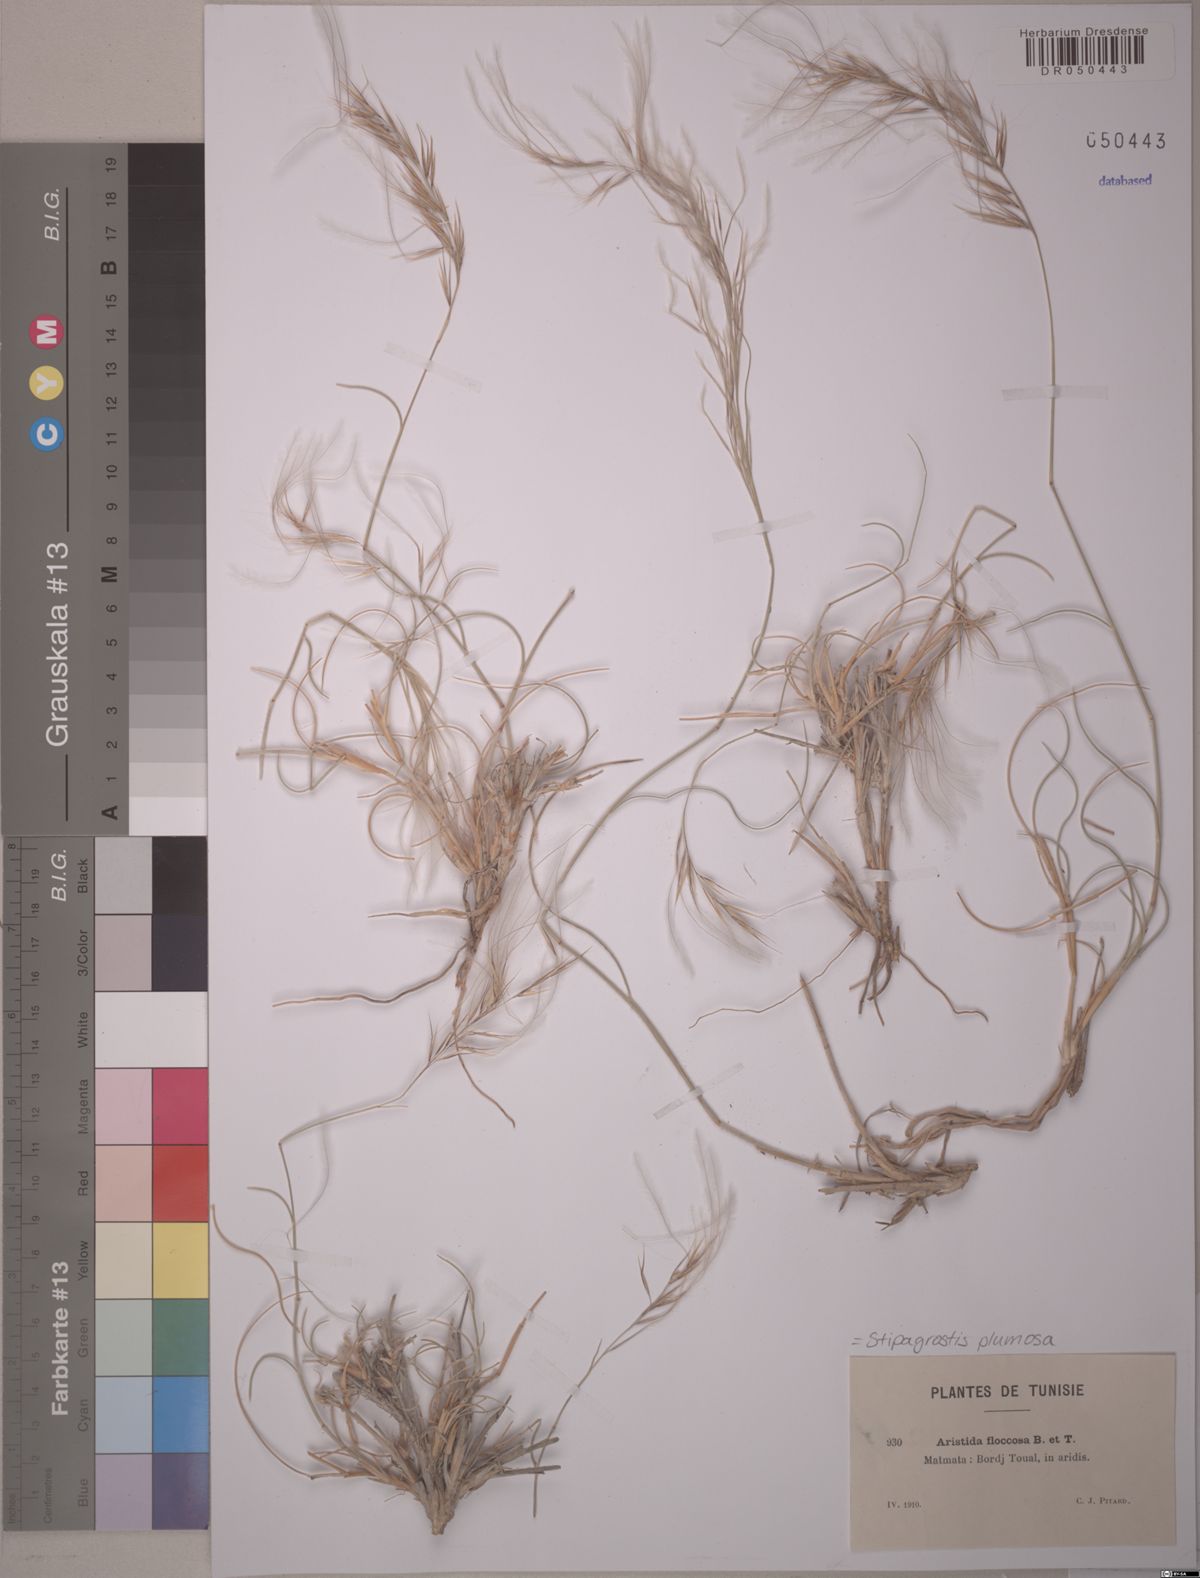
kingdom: Plantae
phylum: Tracheophyta
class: Liliopsida
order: Poales
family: Poaceae
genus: Stipagrostis
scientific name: Stipagrostis plumosa
